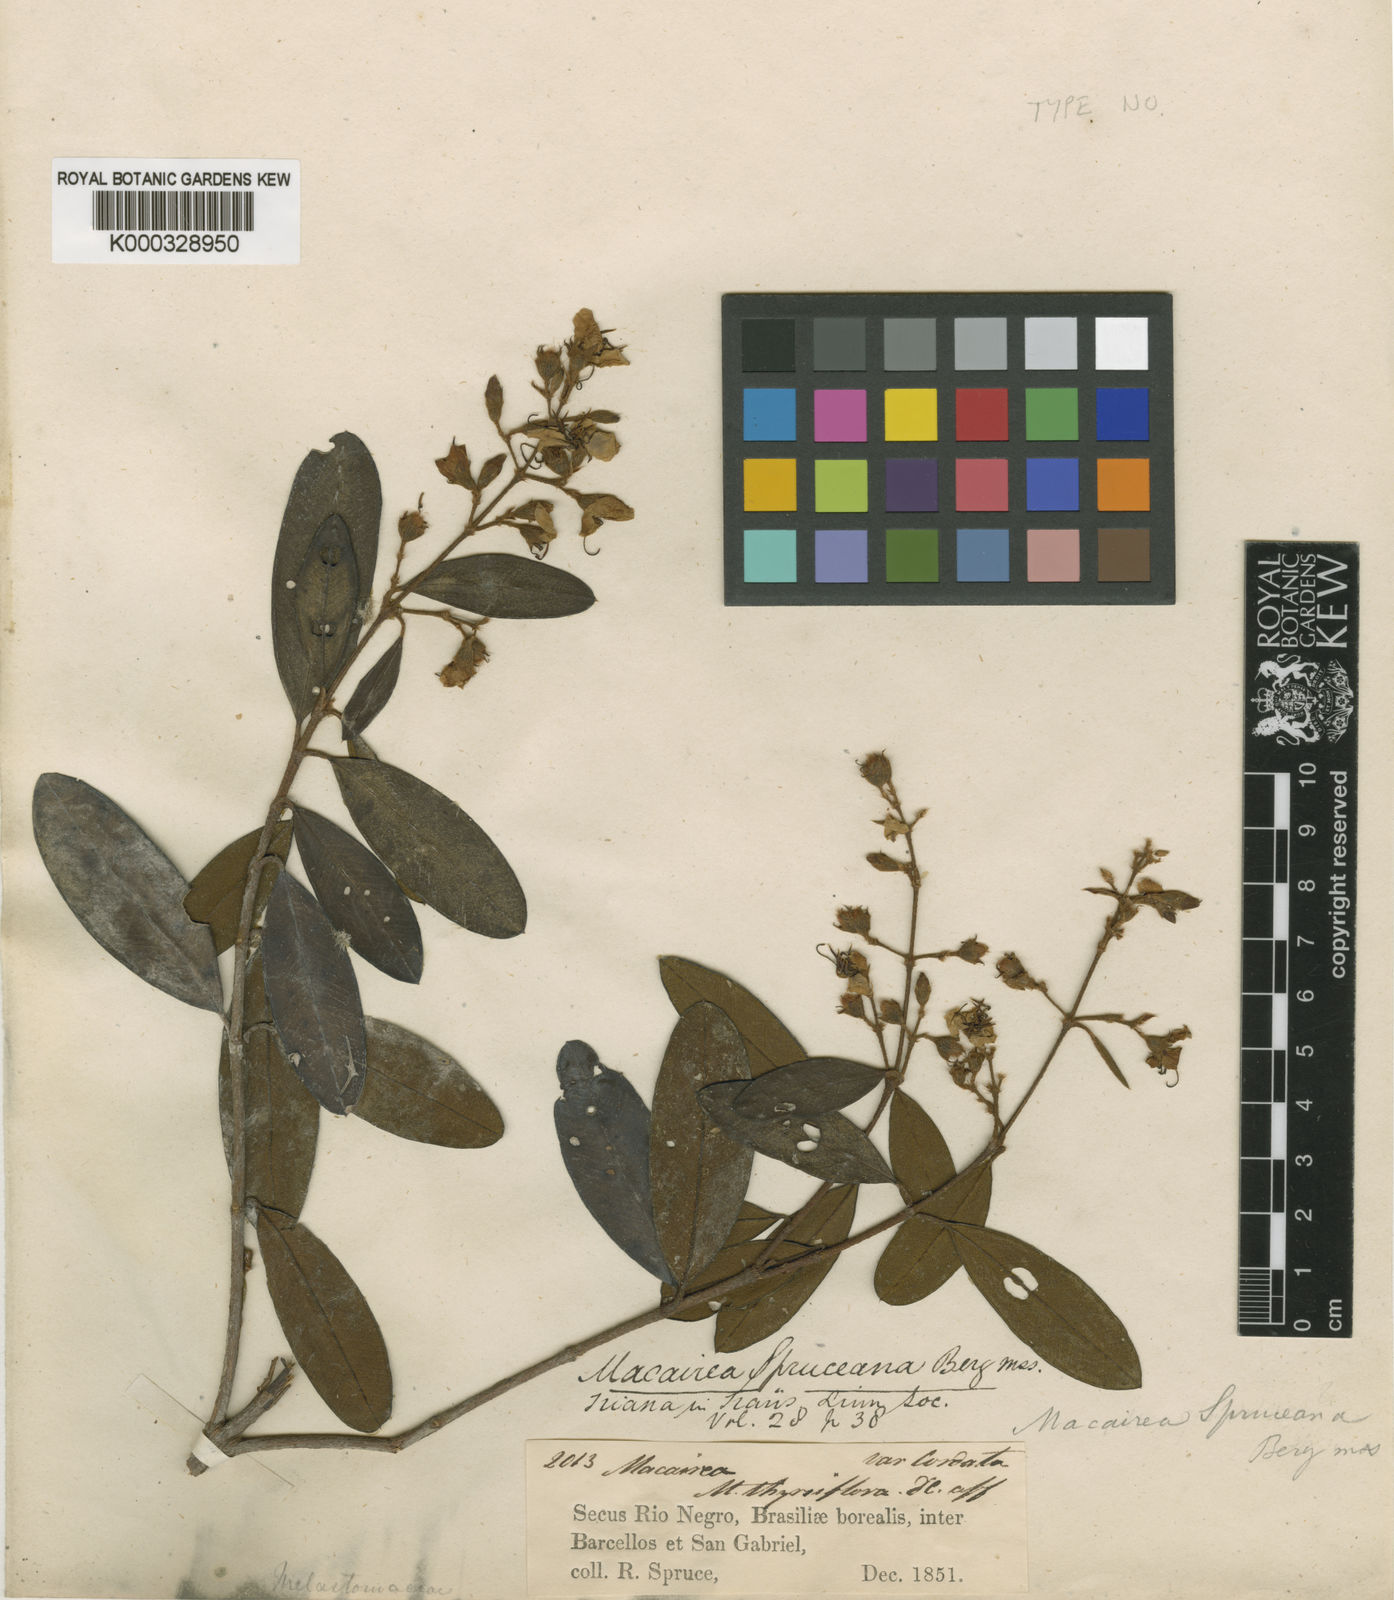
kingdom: Plantae
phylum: Tracheophyta
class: Magnoliopsida
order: Myrtales
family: Melastomataceae
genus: Macairea
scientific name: Macairea spruceana
